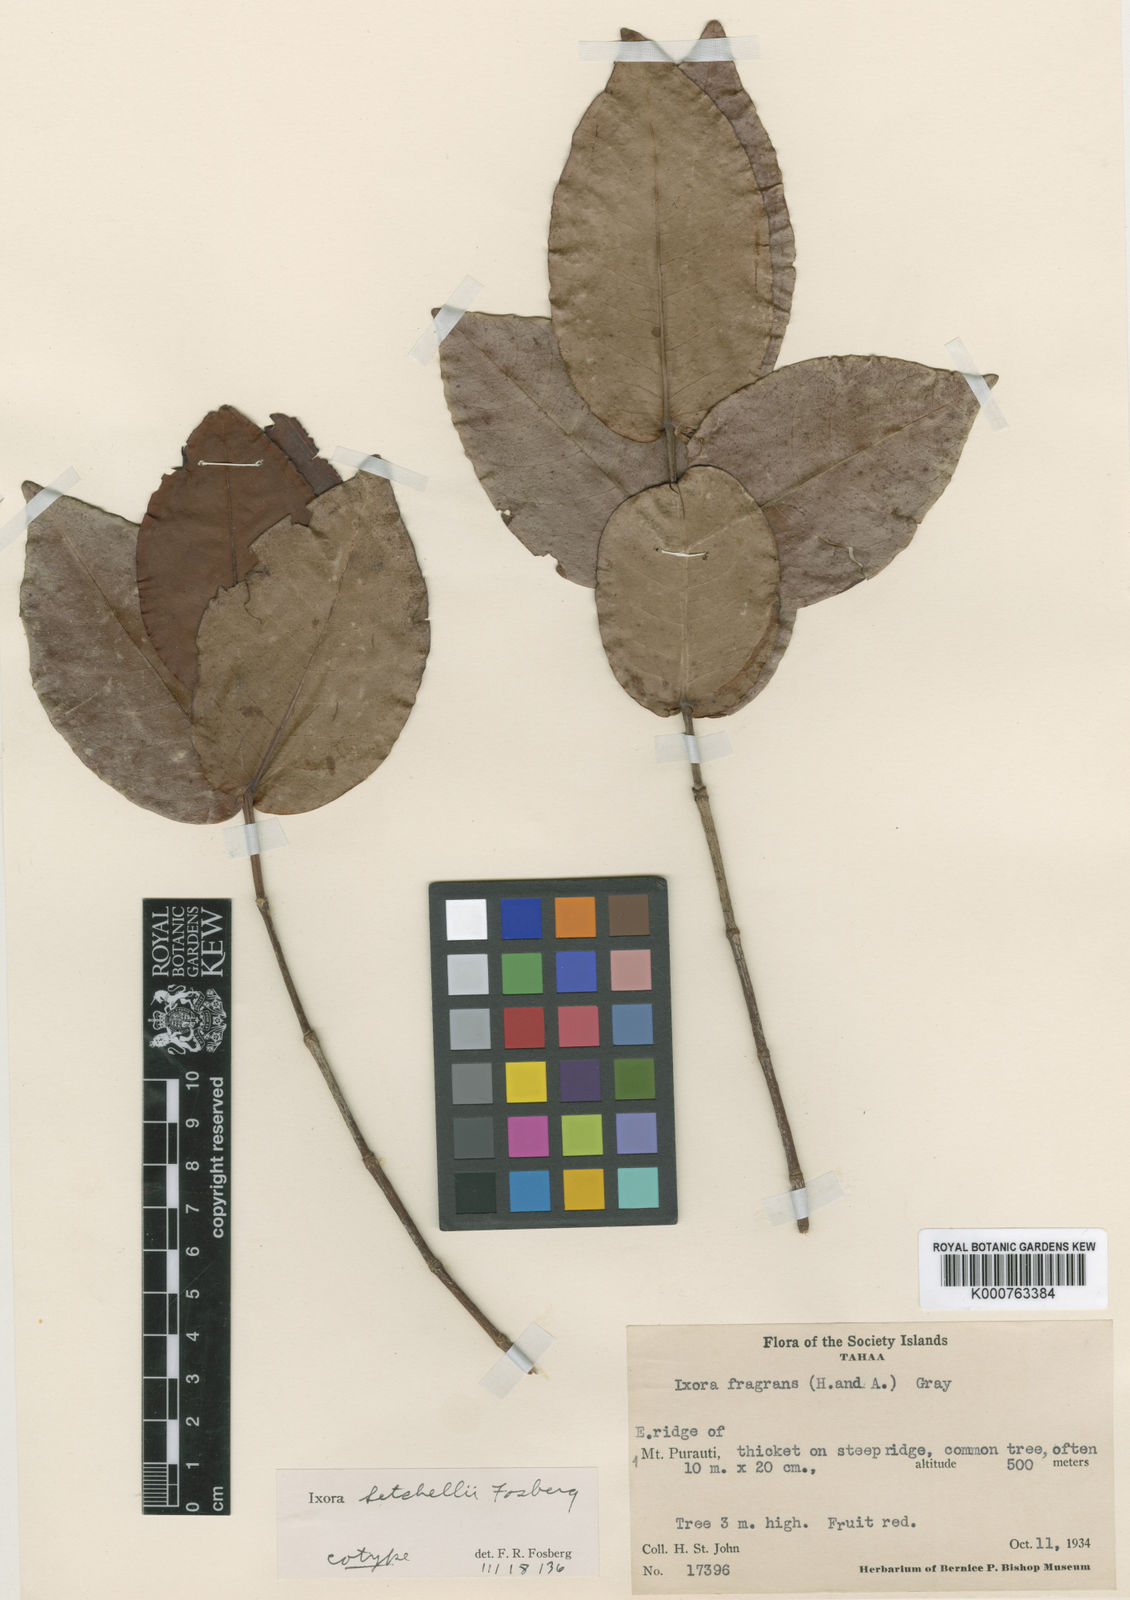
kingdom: Plantae
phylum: Tracheophyta
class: Magnoliopsida
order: Gentianales
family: Rubiaceae
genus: Ixora
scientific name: Ixora setchellii
